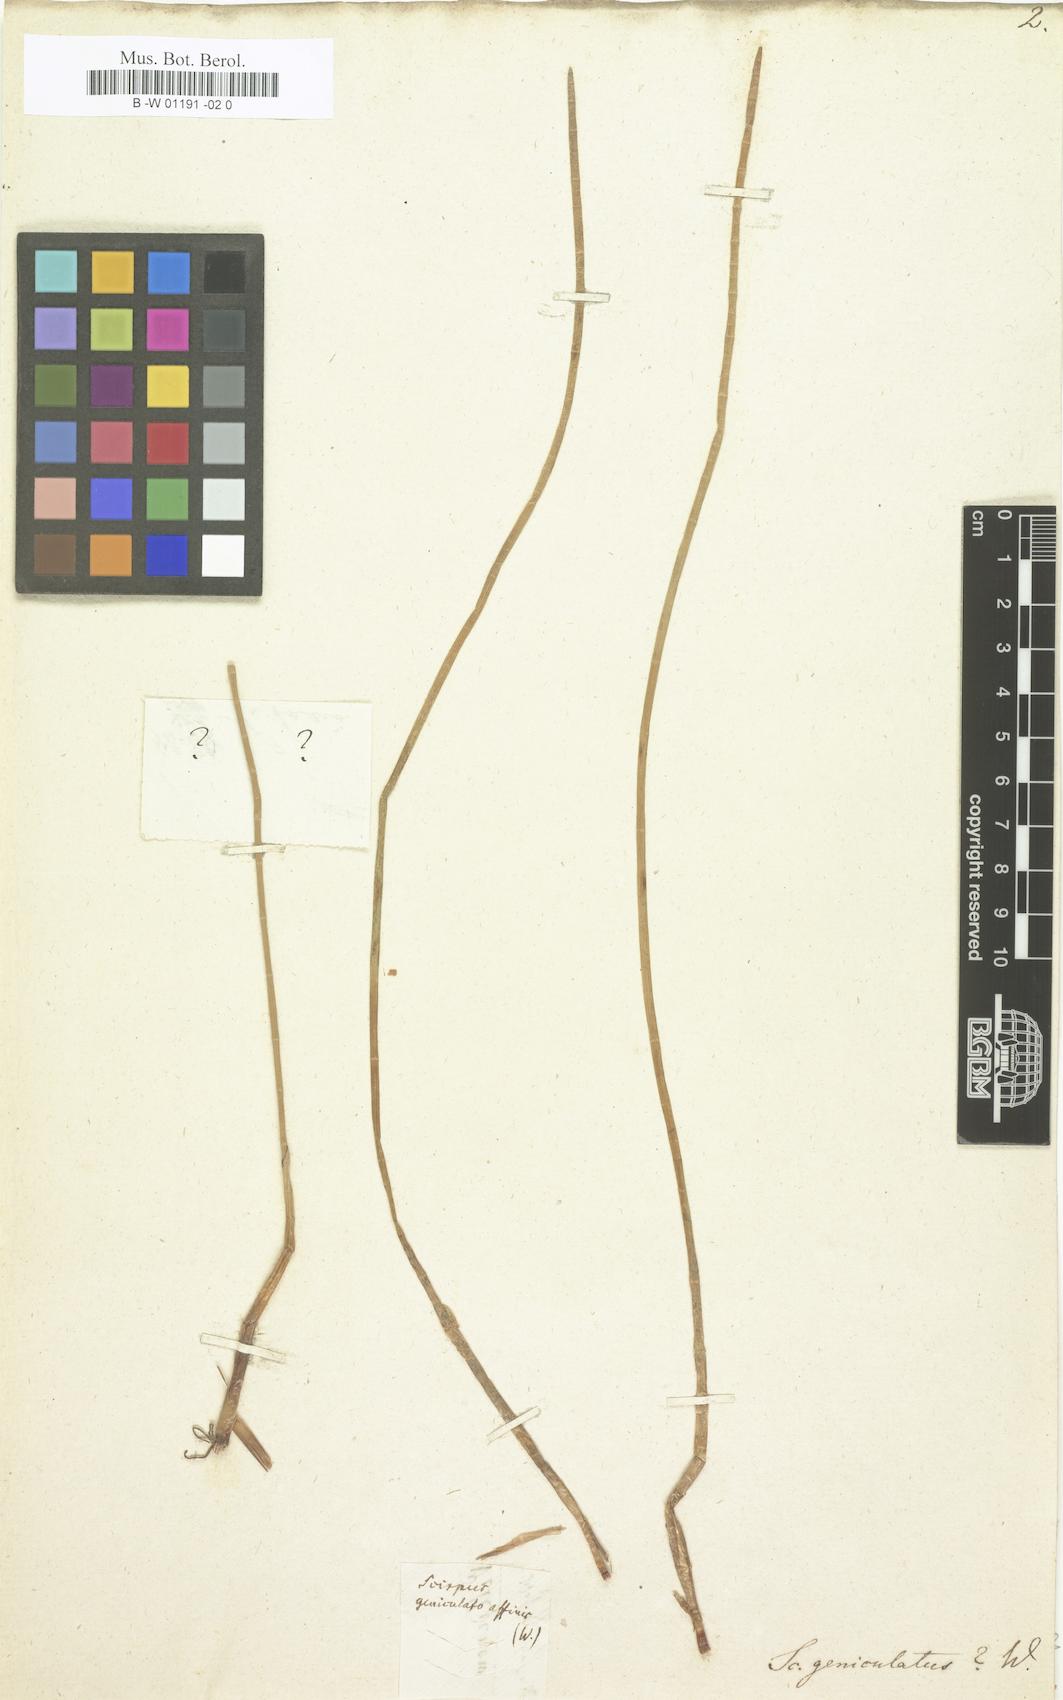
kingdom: Plantae
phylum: Tracheophyta
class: Liliopsida
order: Poales
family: Cyperaceae
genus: Eleocharis
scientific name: Eleocharis geniculata
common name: Canada spikesedge
